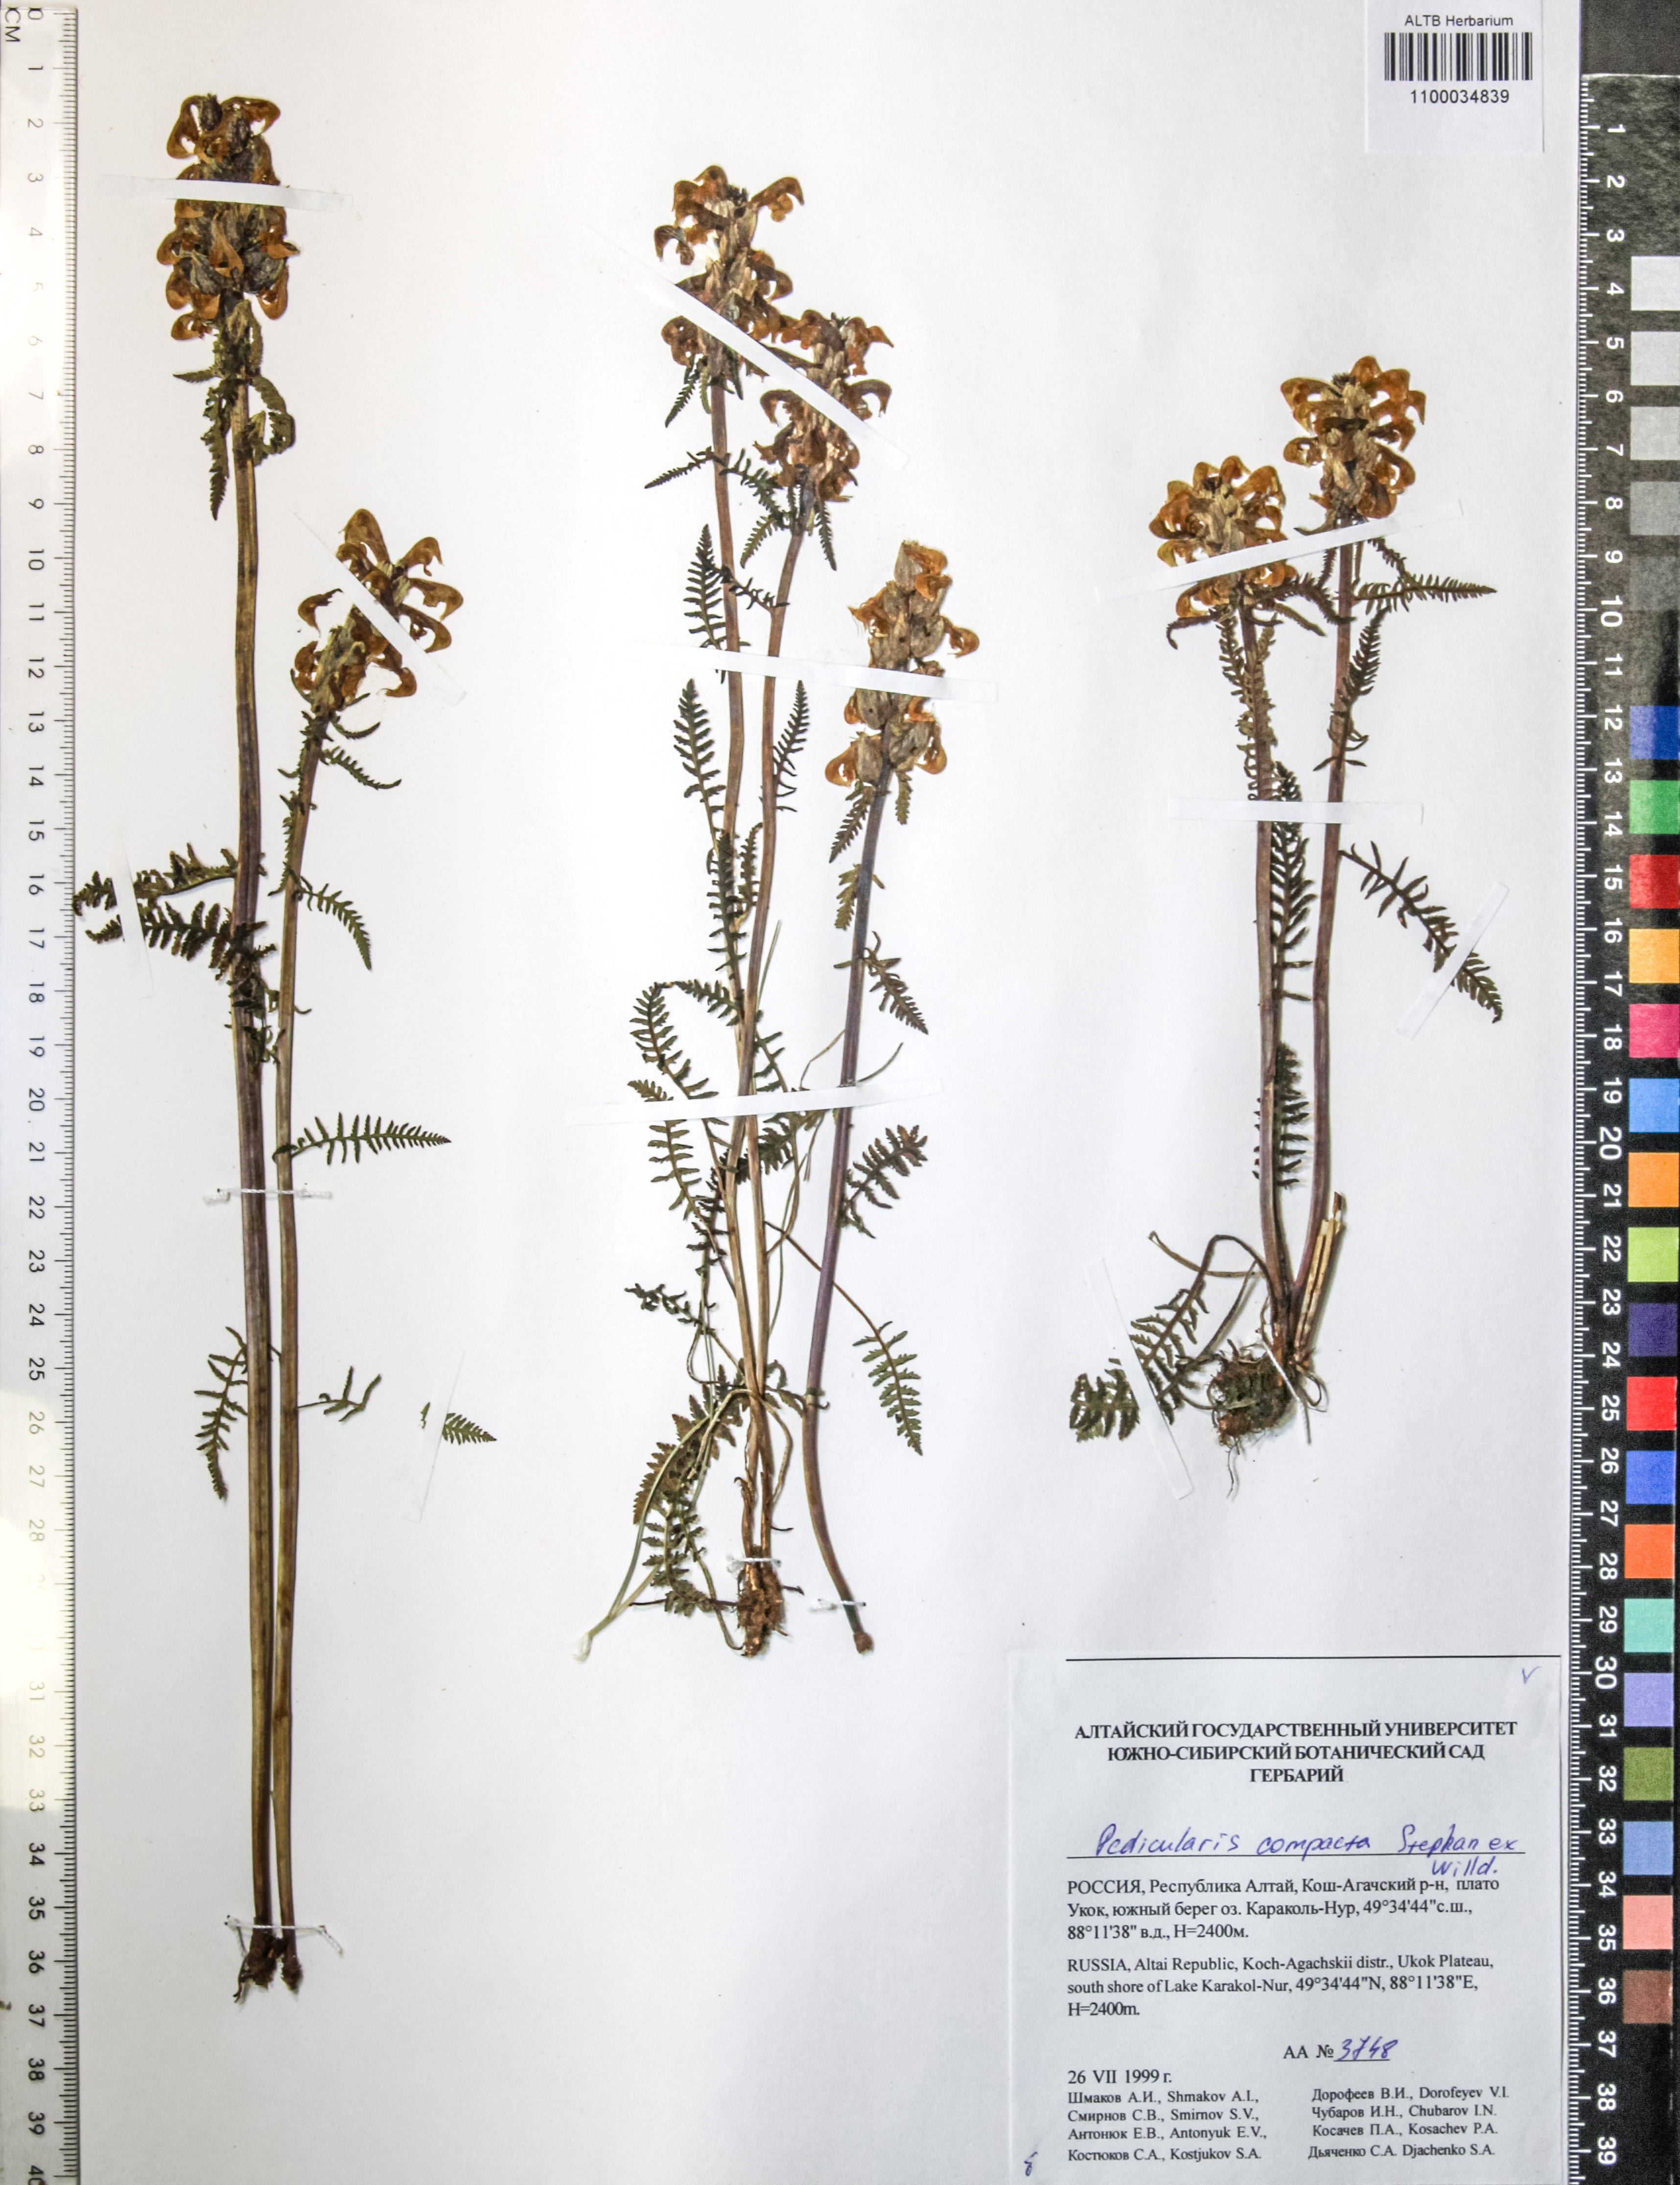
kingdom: Plantae
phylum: Tracheophyta
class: Magnoliopsida
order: Lamiales
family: Orobanchaceae
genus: Pedicularis
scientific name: Pedicularis compacta
